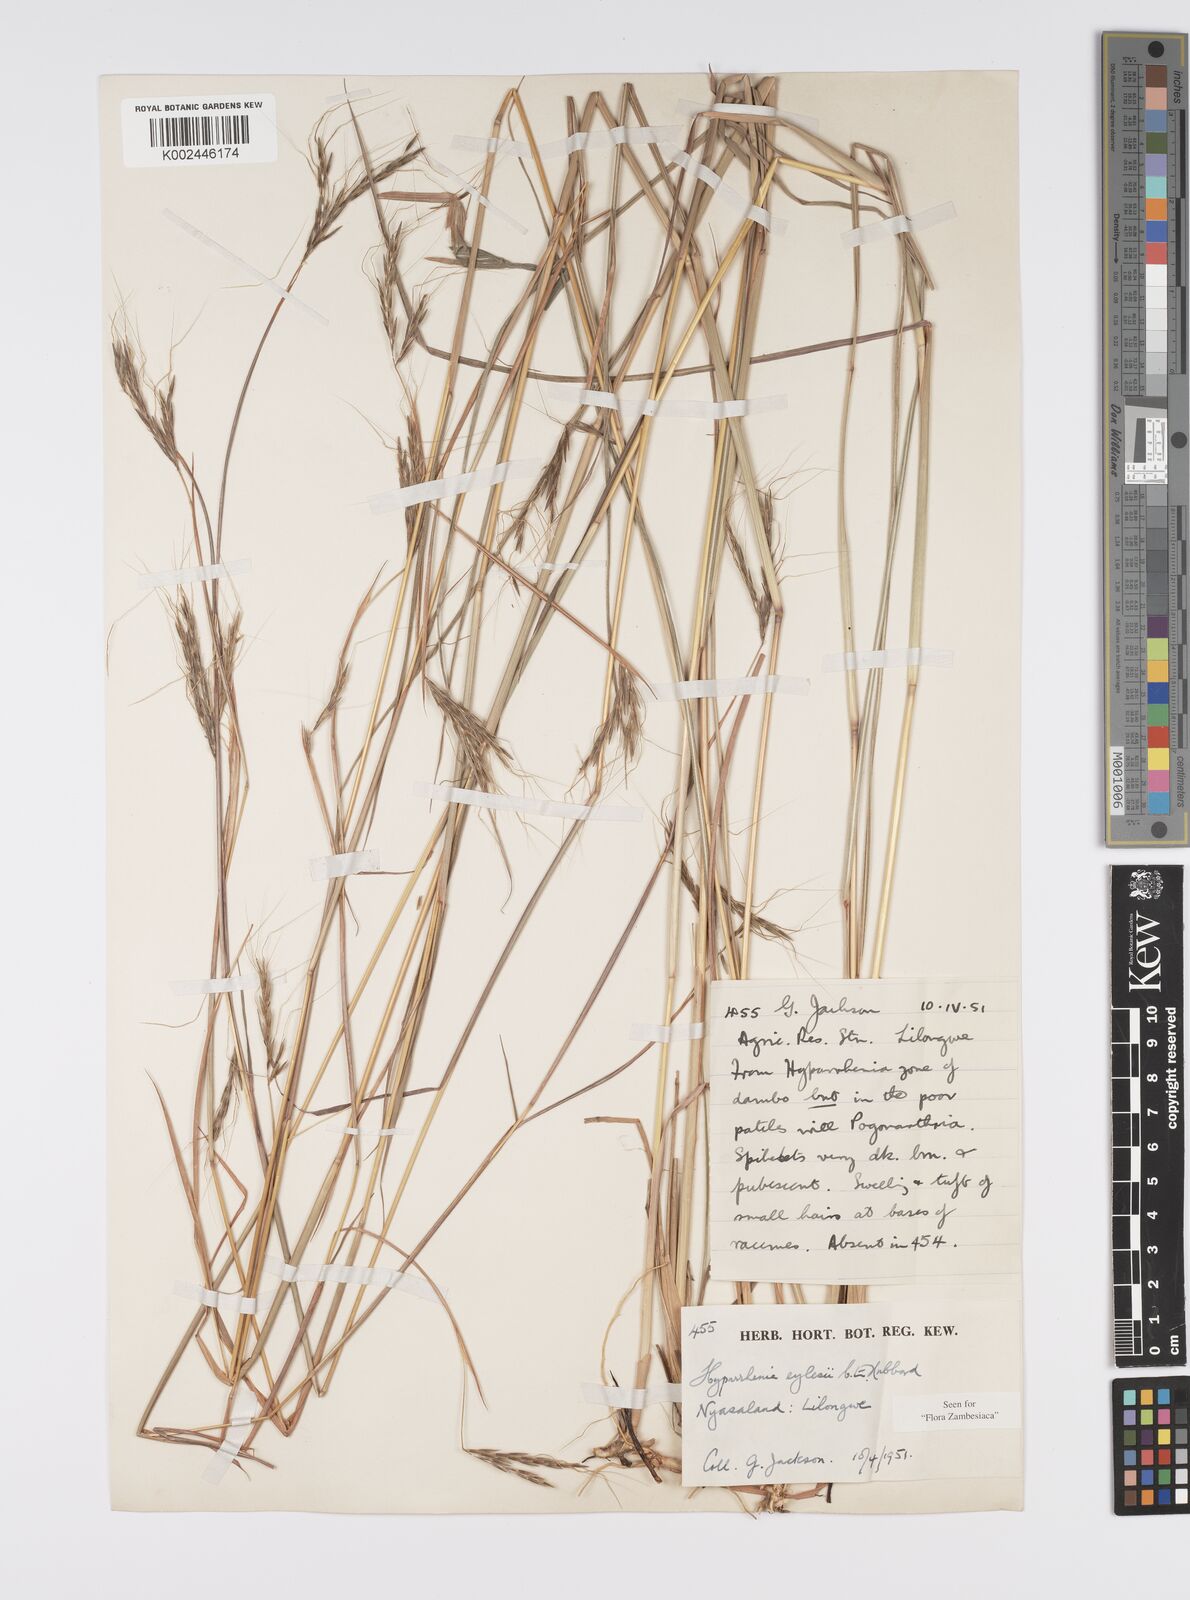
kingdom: Plantae
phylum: Tracheophyta
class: Liliopsida
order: Poales
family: Poaceae
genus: Elymandra
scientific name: Elymandra grallata
